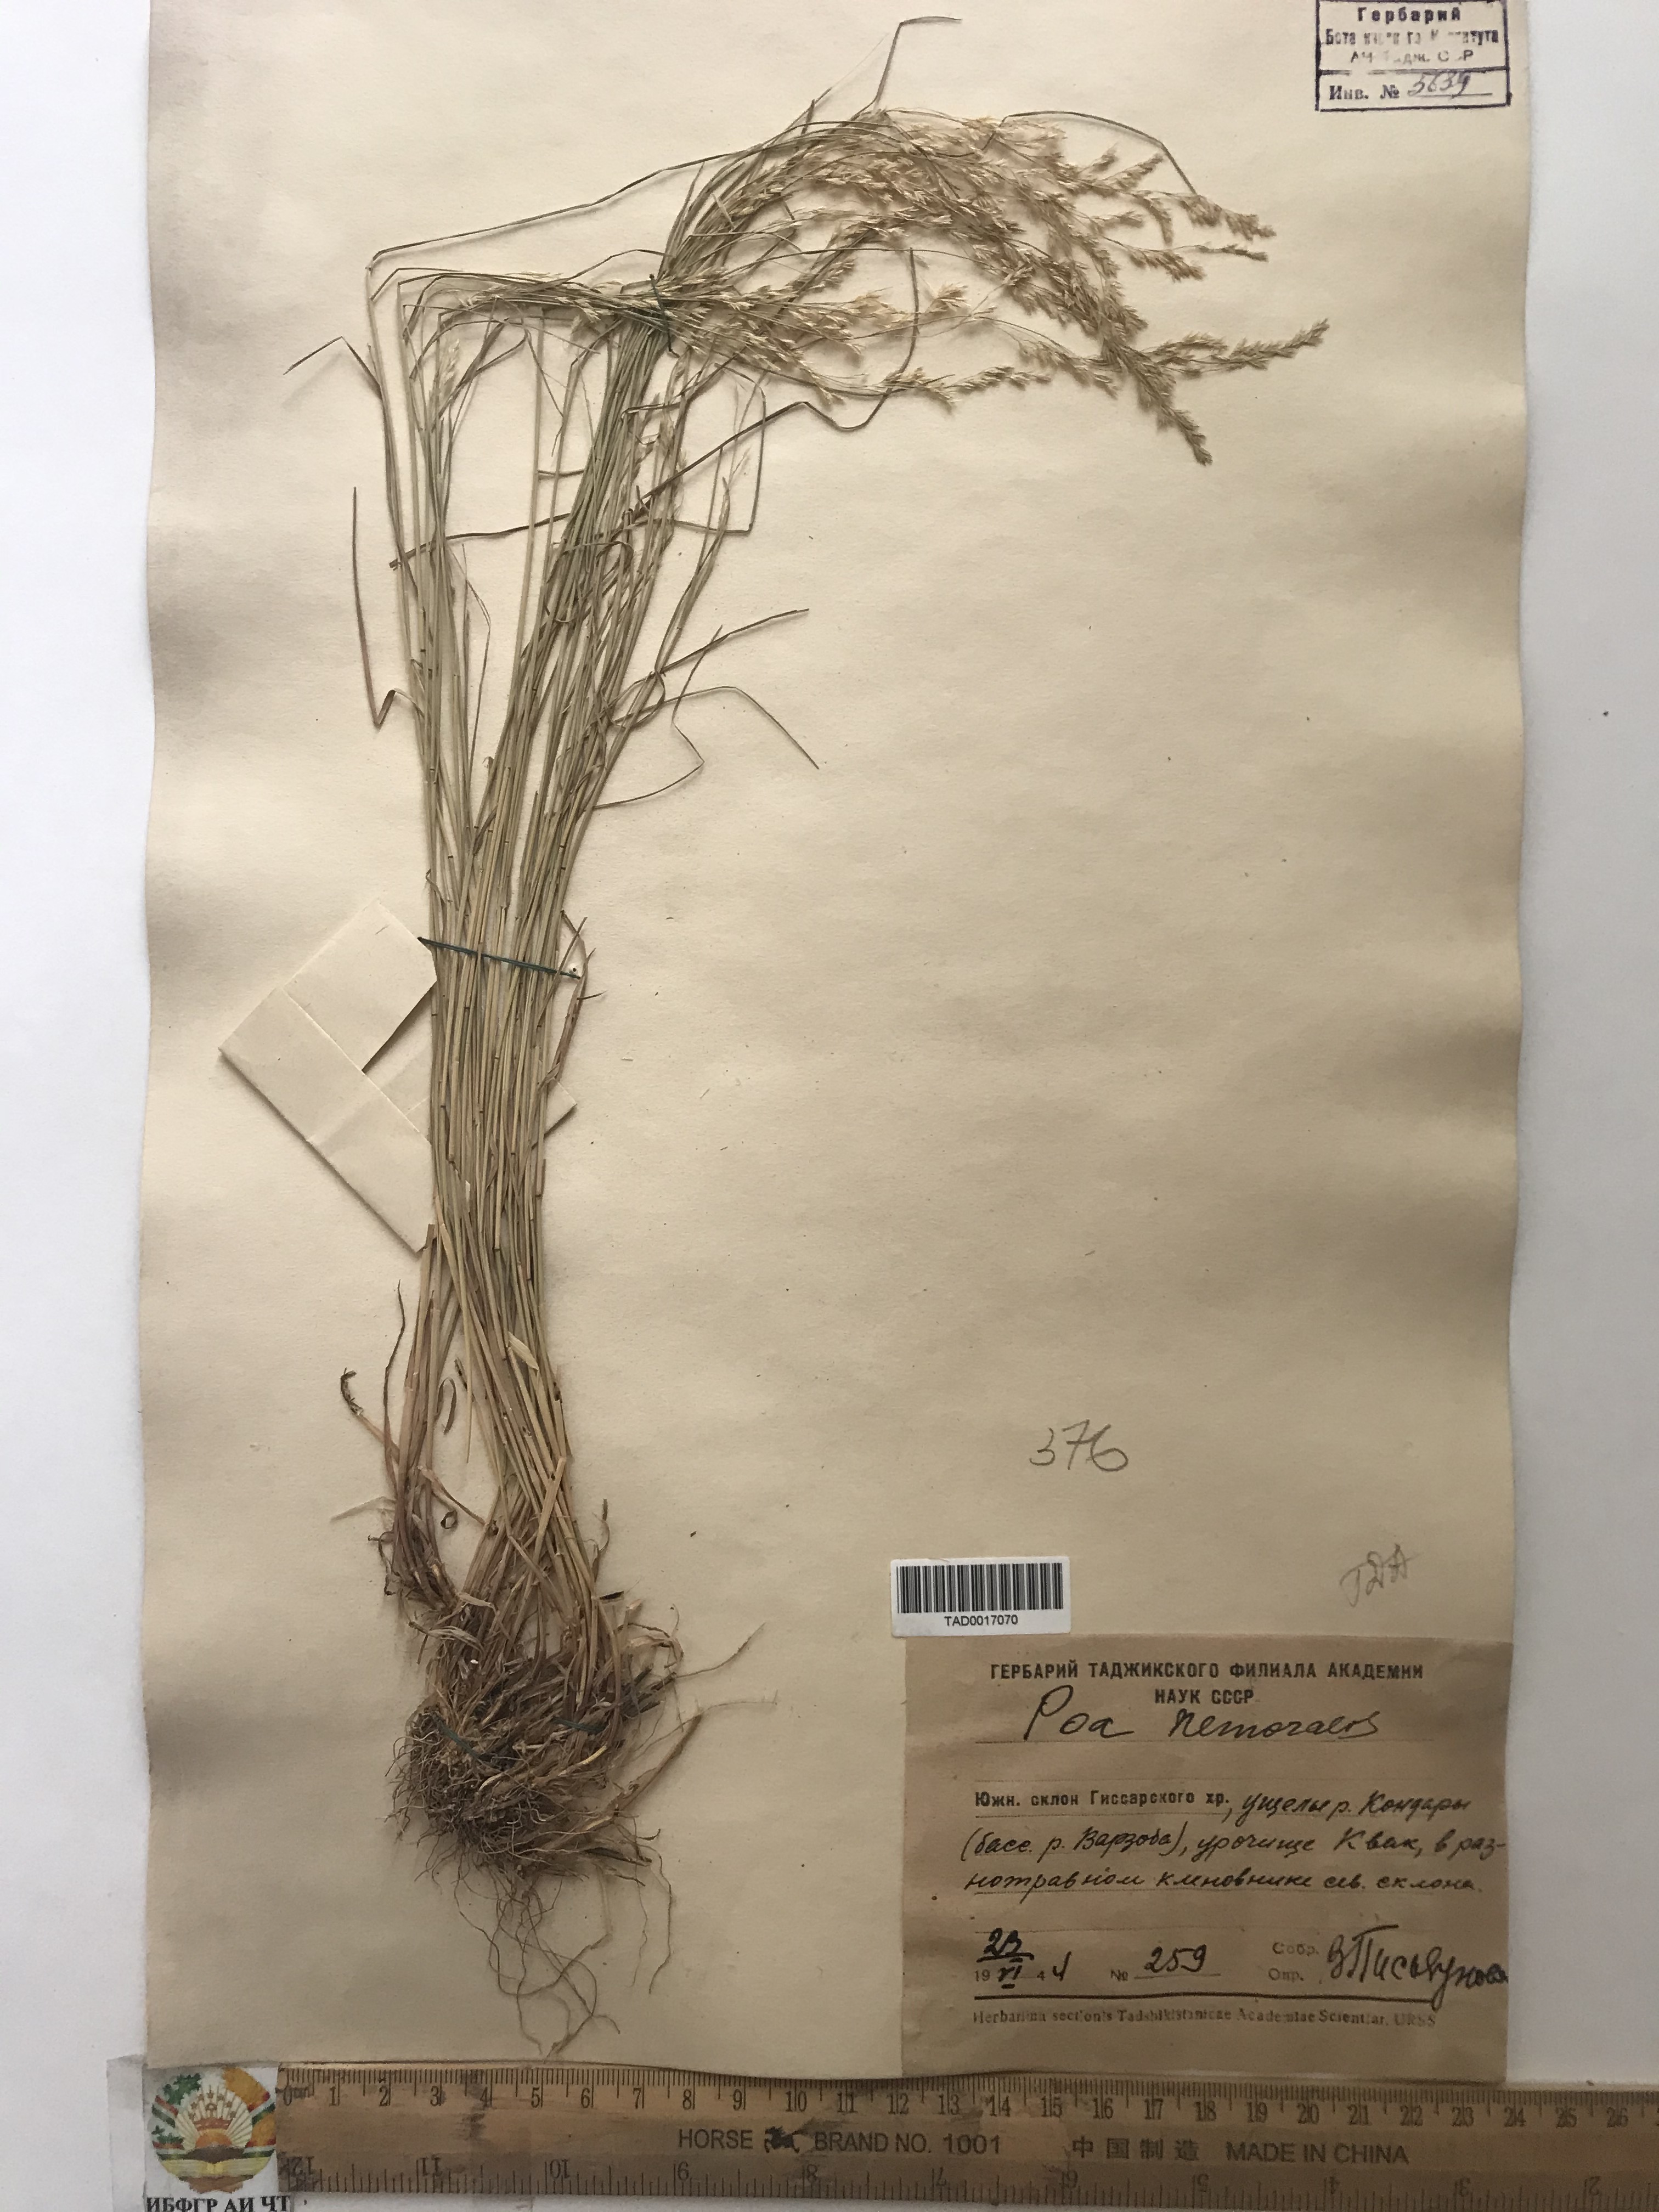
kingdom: Plantae
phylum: Tracheophyta
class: Liliopsida
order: Poales
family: Poaceae
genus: Poa
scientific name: Poa nemoralis
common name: Wood bluegrass
